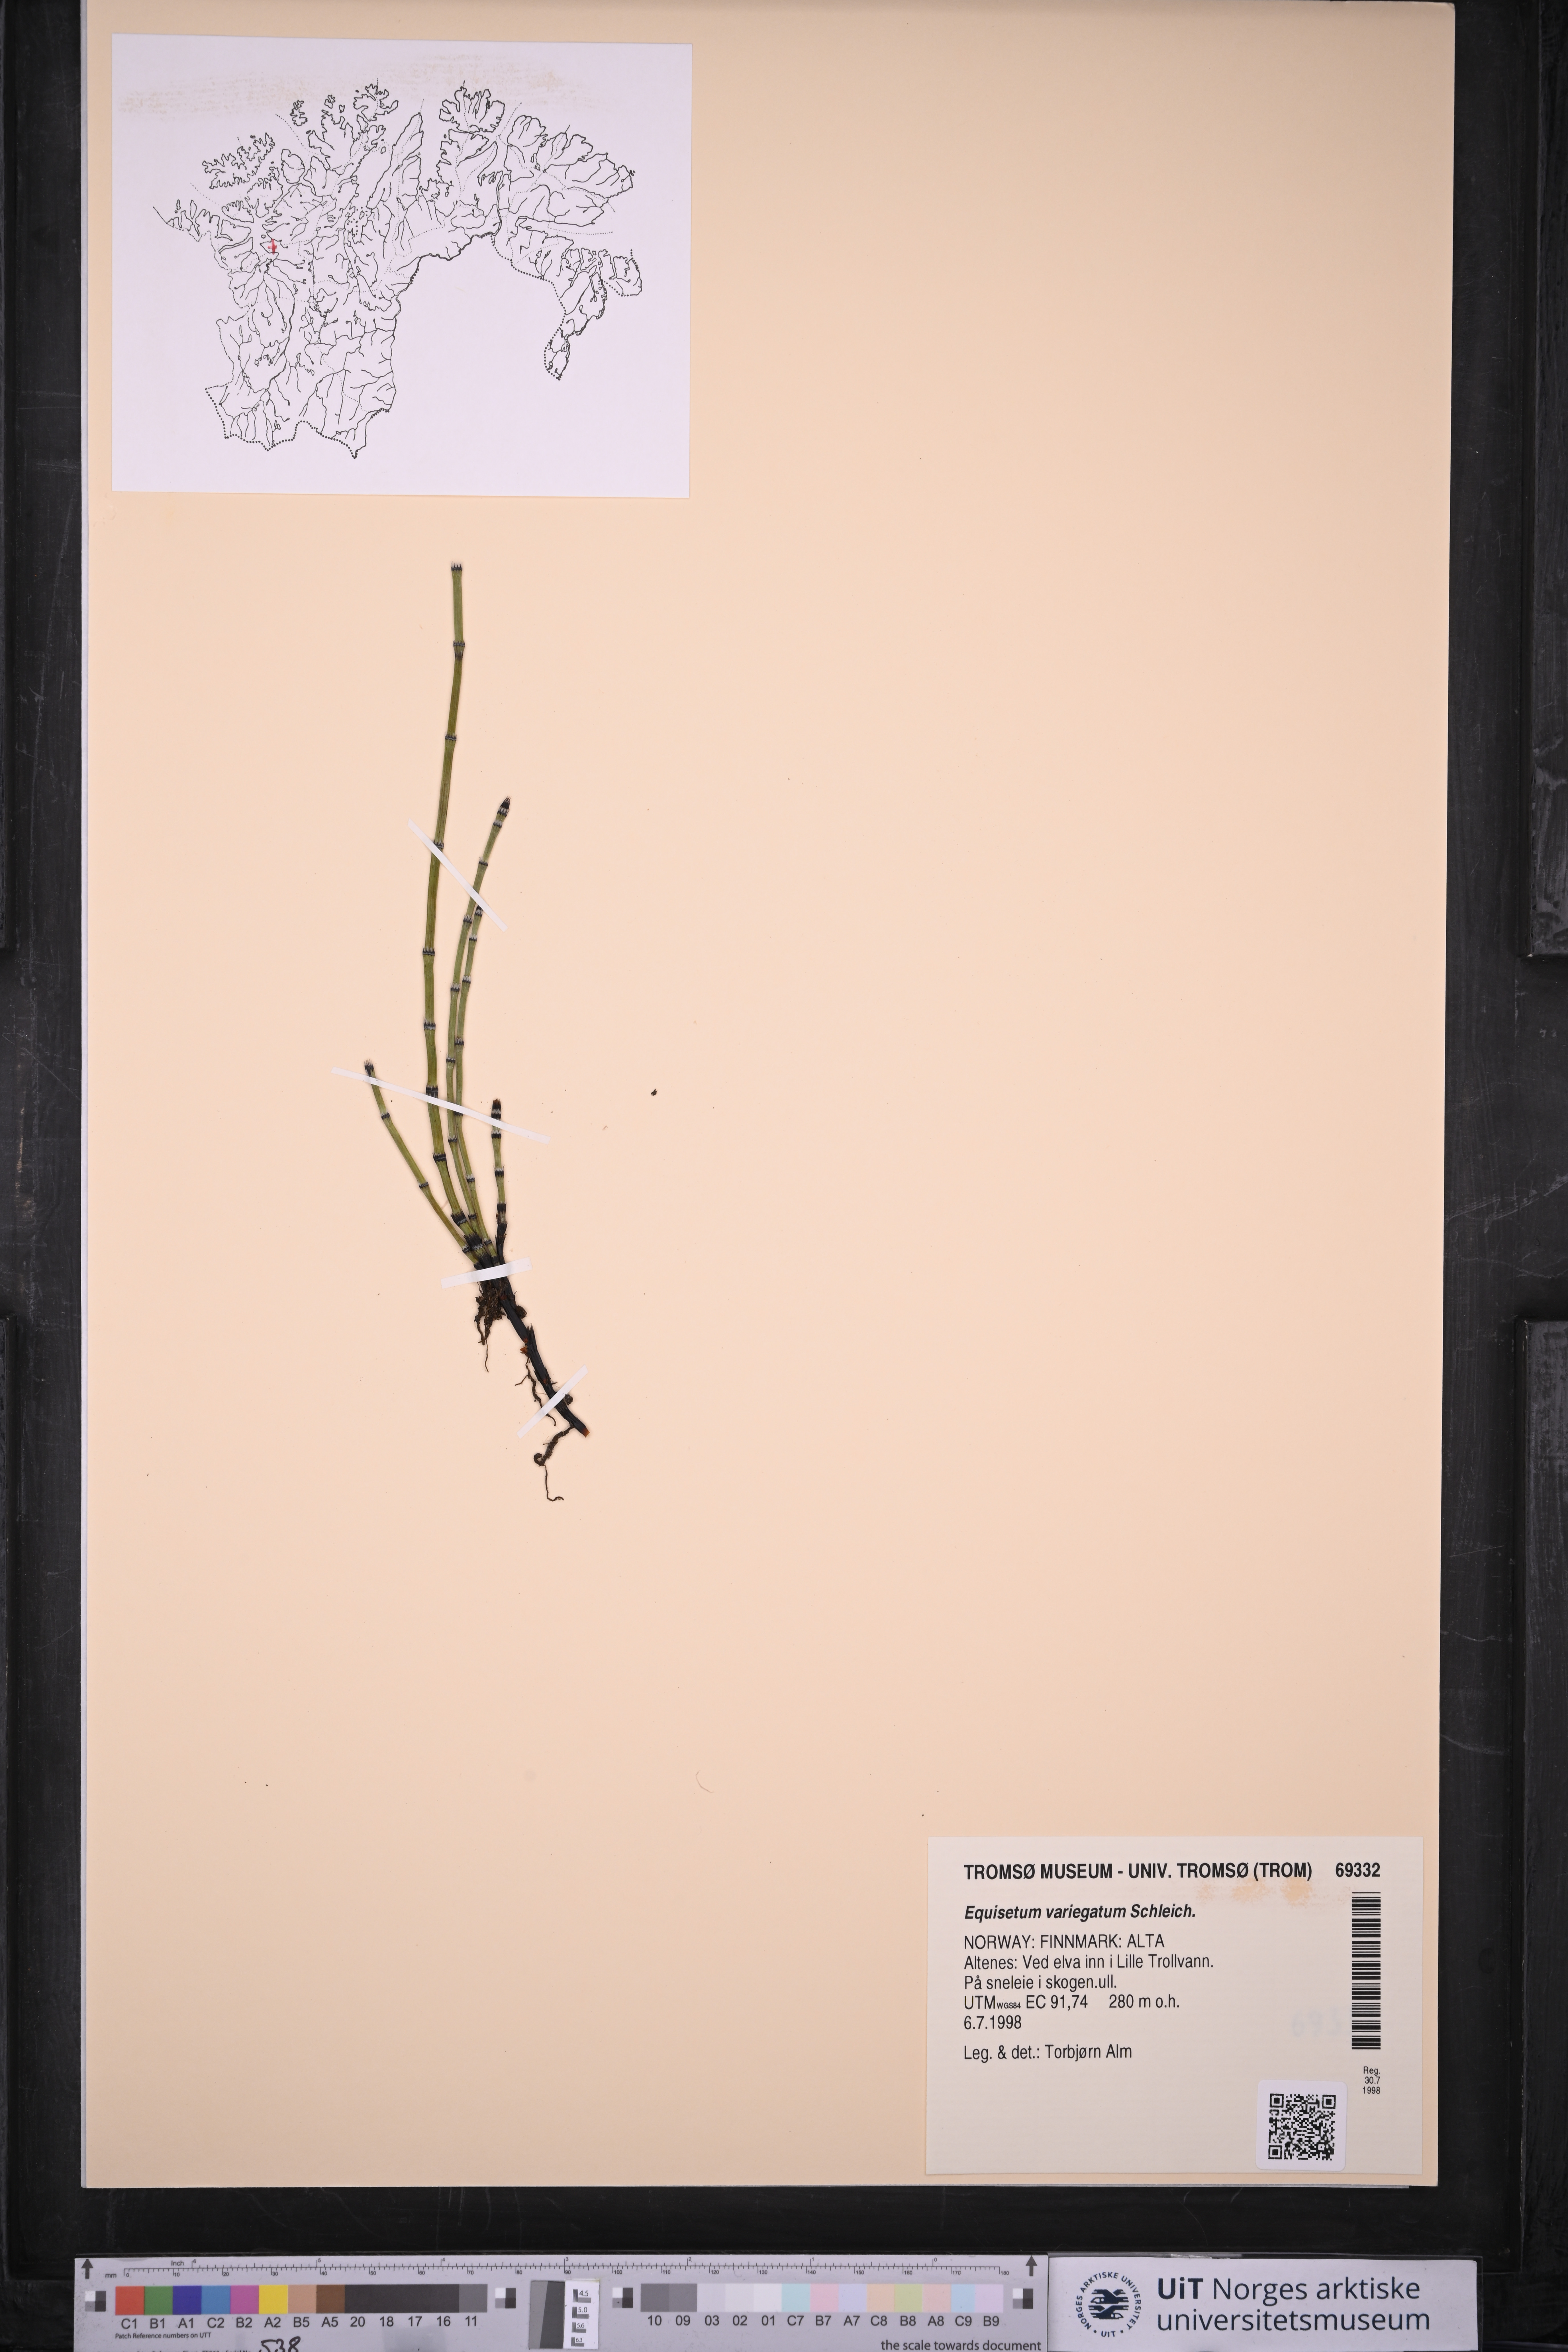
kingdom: Plantae
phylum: Tracheophyta
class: Polypodiopsida
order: Equisetales
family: Equisetaceae
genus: Equisetum
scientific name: Equisetum variegatum
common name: Variegated horsetail
